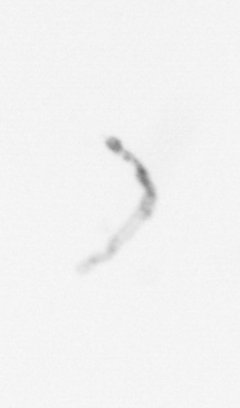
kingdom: Chromista
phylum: Ochrophyta
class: Bacillariophyceae
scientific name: Bacillariophyceae
